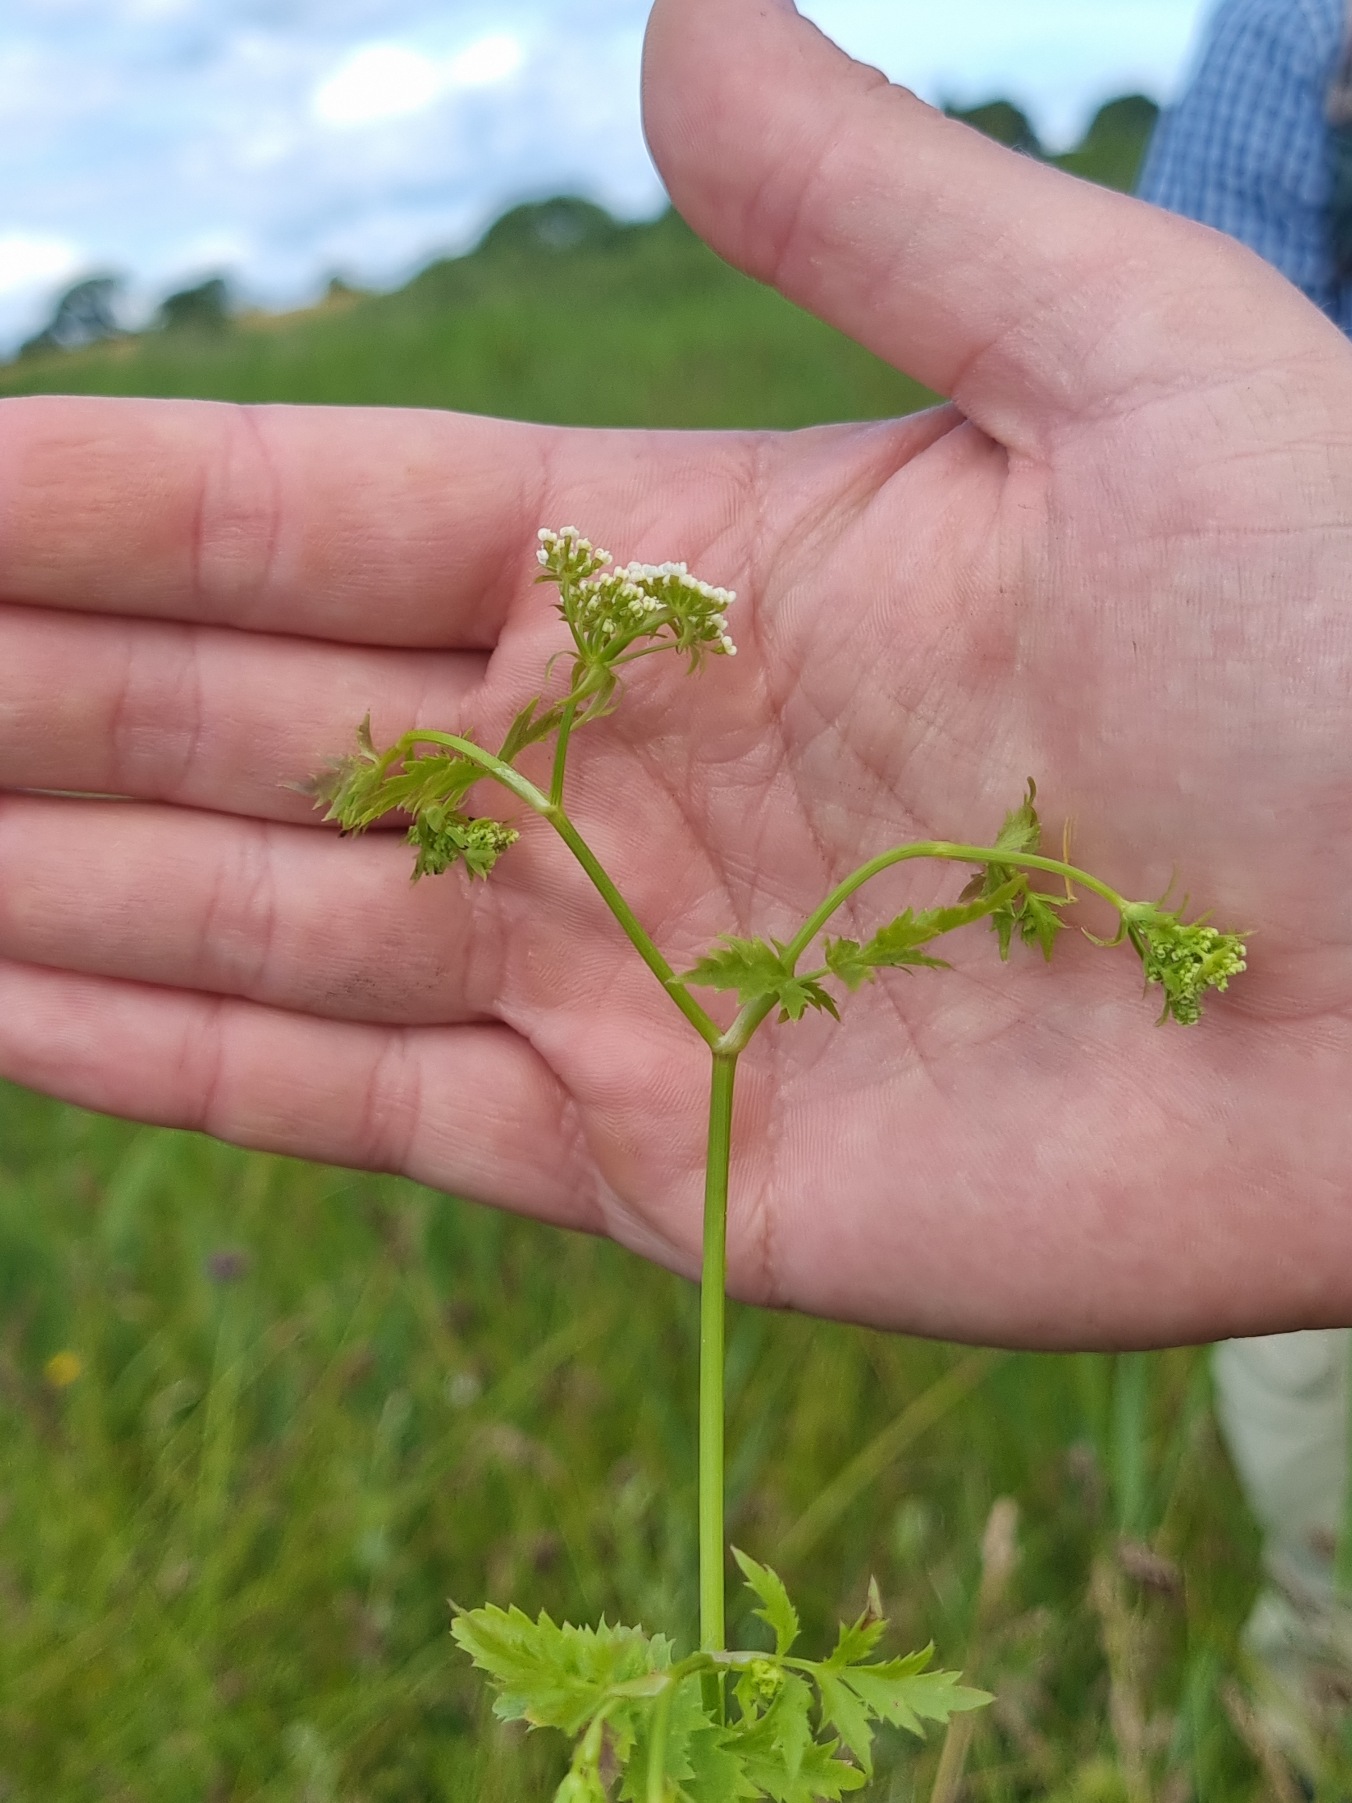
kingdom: Plantae
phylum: Tracheophyta
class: Magnoliopsida
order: Apiales
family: Apiaceae
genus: Berula
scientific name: Berula erecta
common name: Sideskærm
